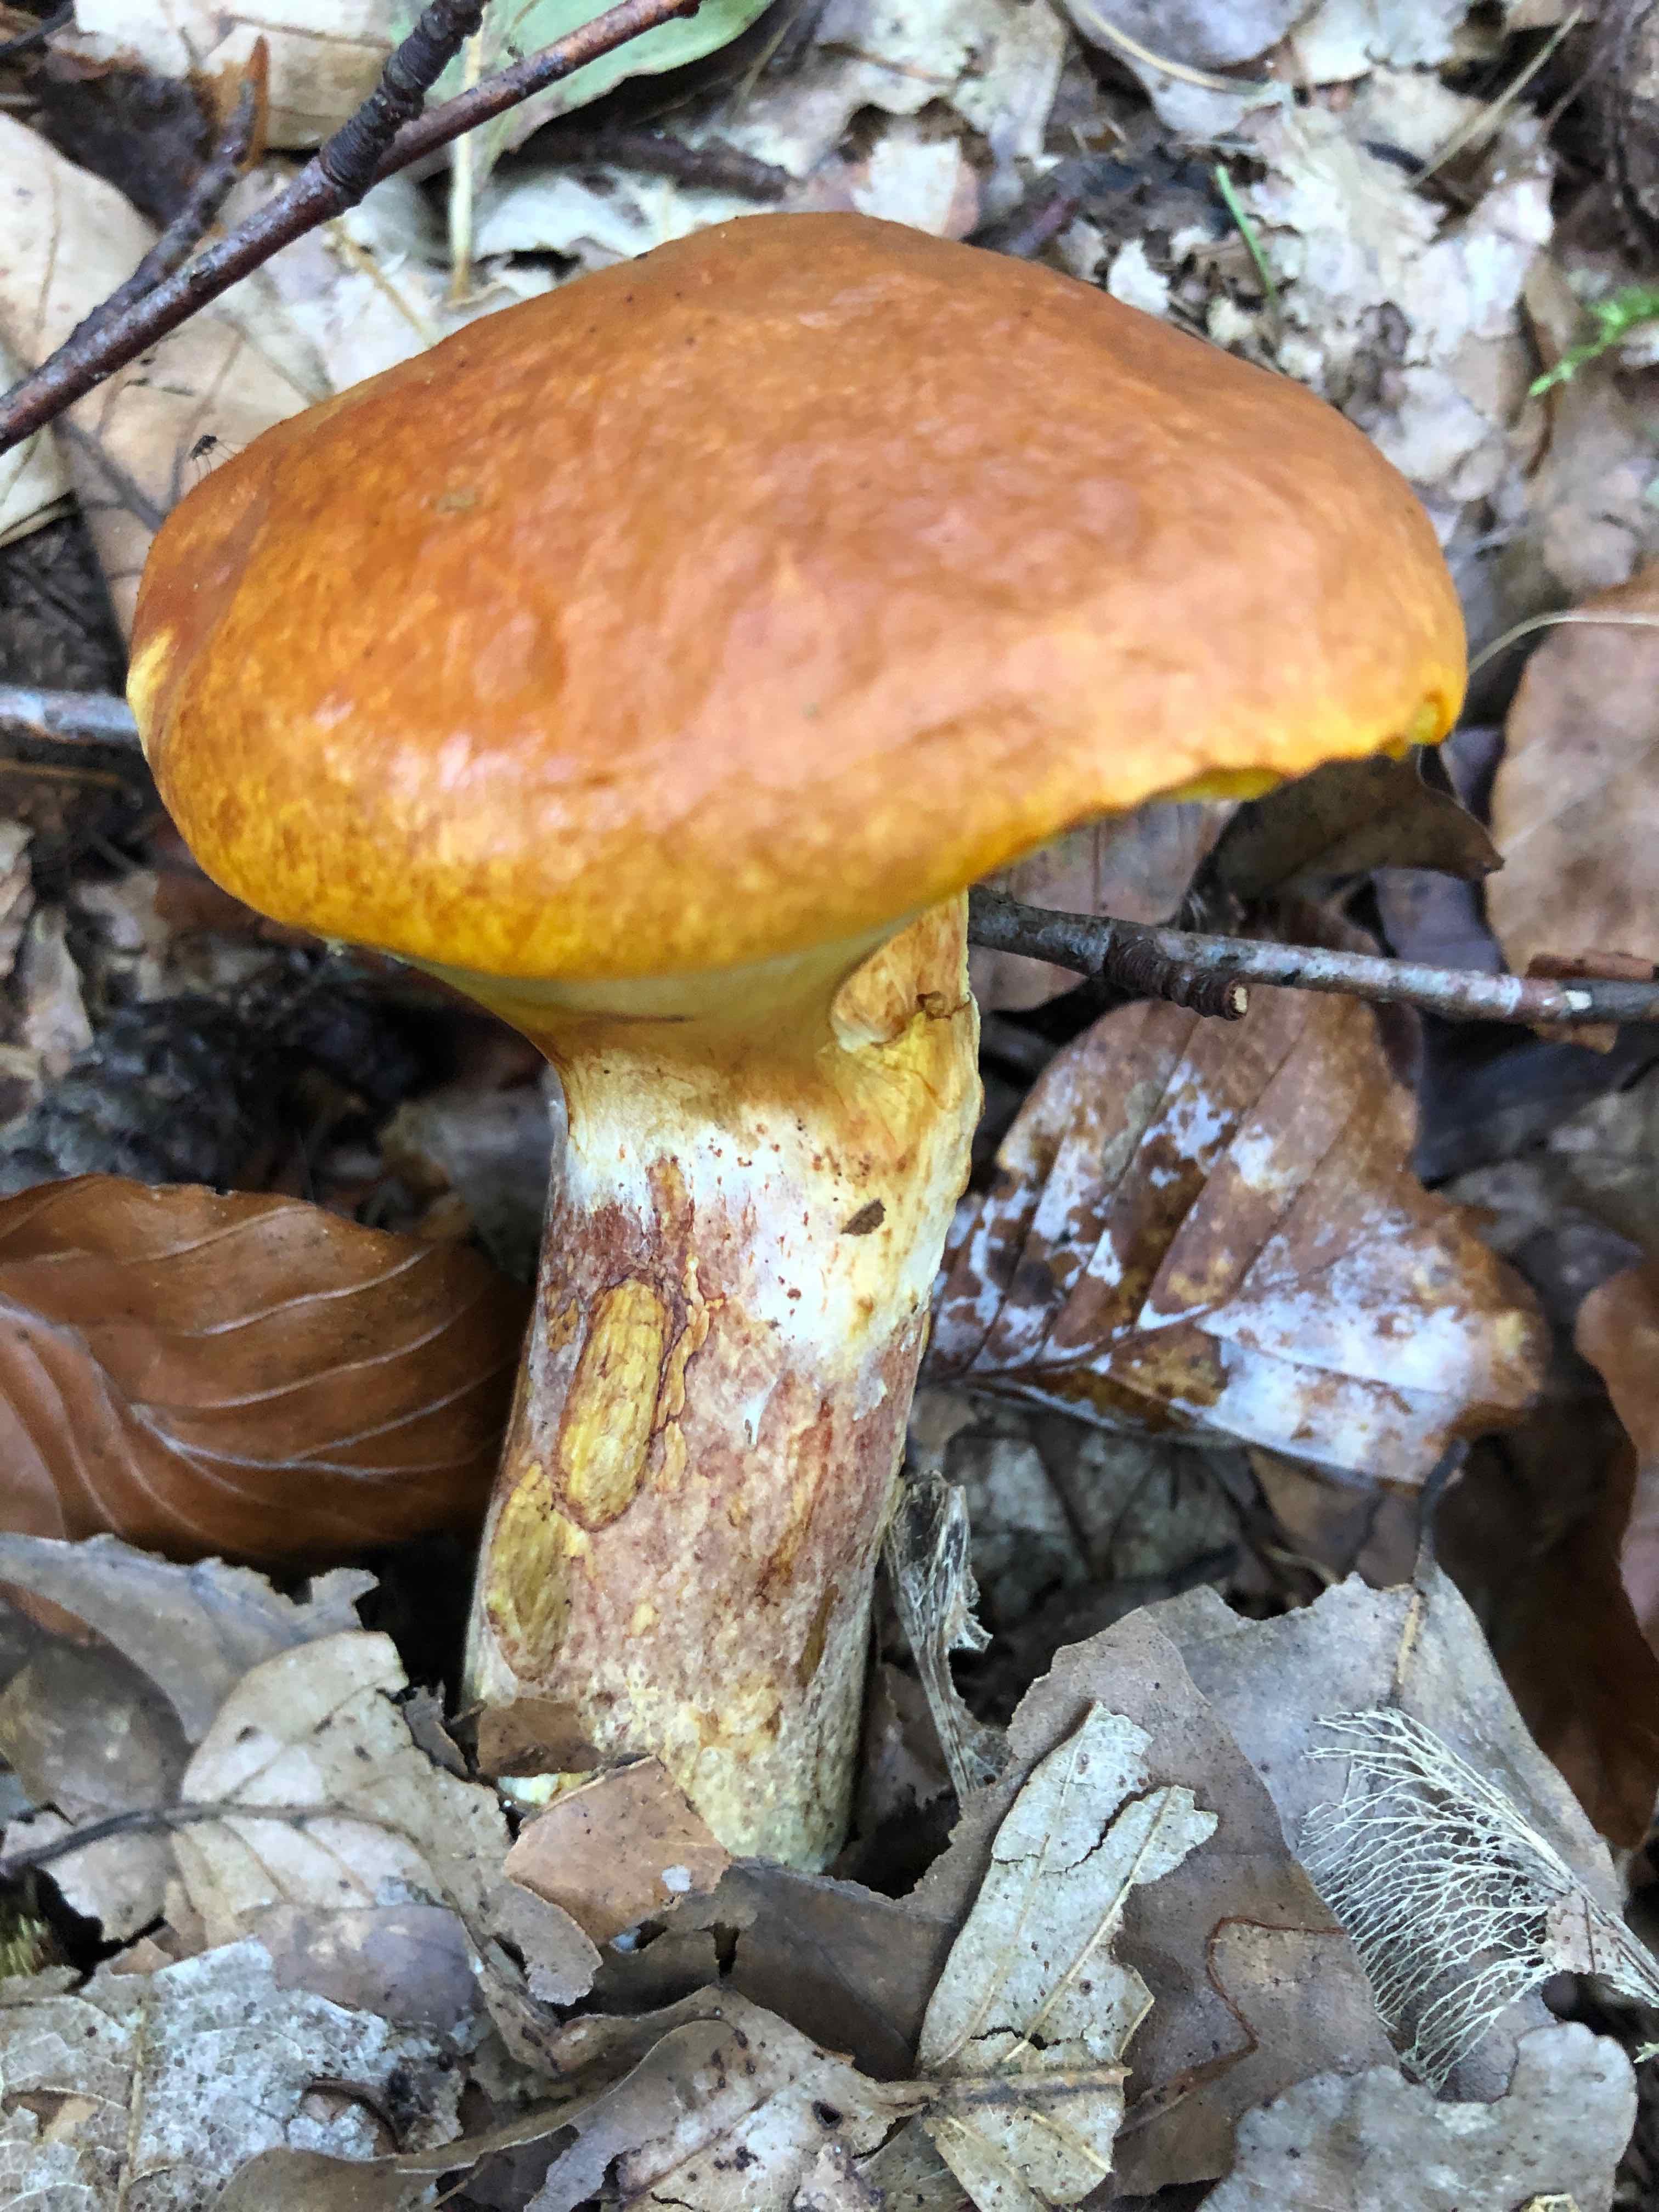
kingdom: Fungi
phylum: Basidiomycota
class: Agaricomycetes
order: Boletales
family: Suillaceae
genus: Suillus
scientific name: Suillus grevillei
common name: lærke-slimrørhat
